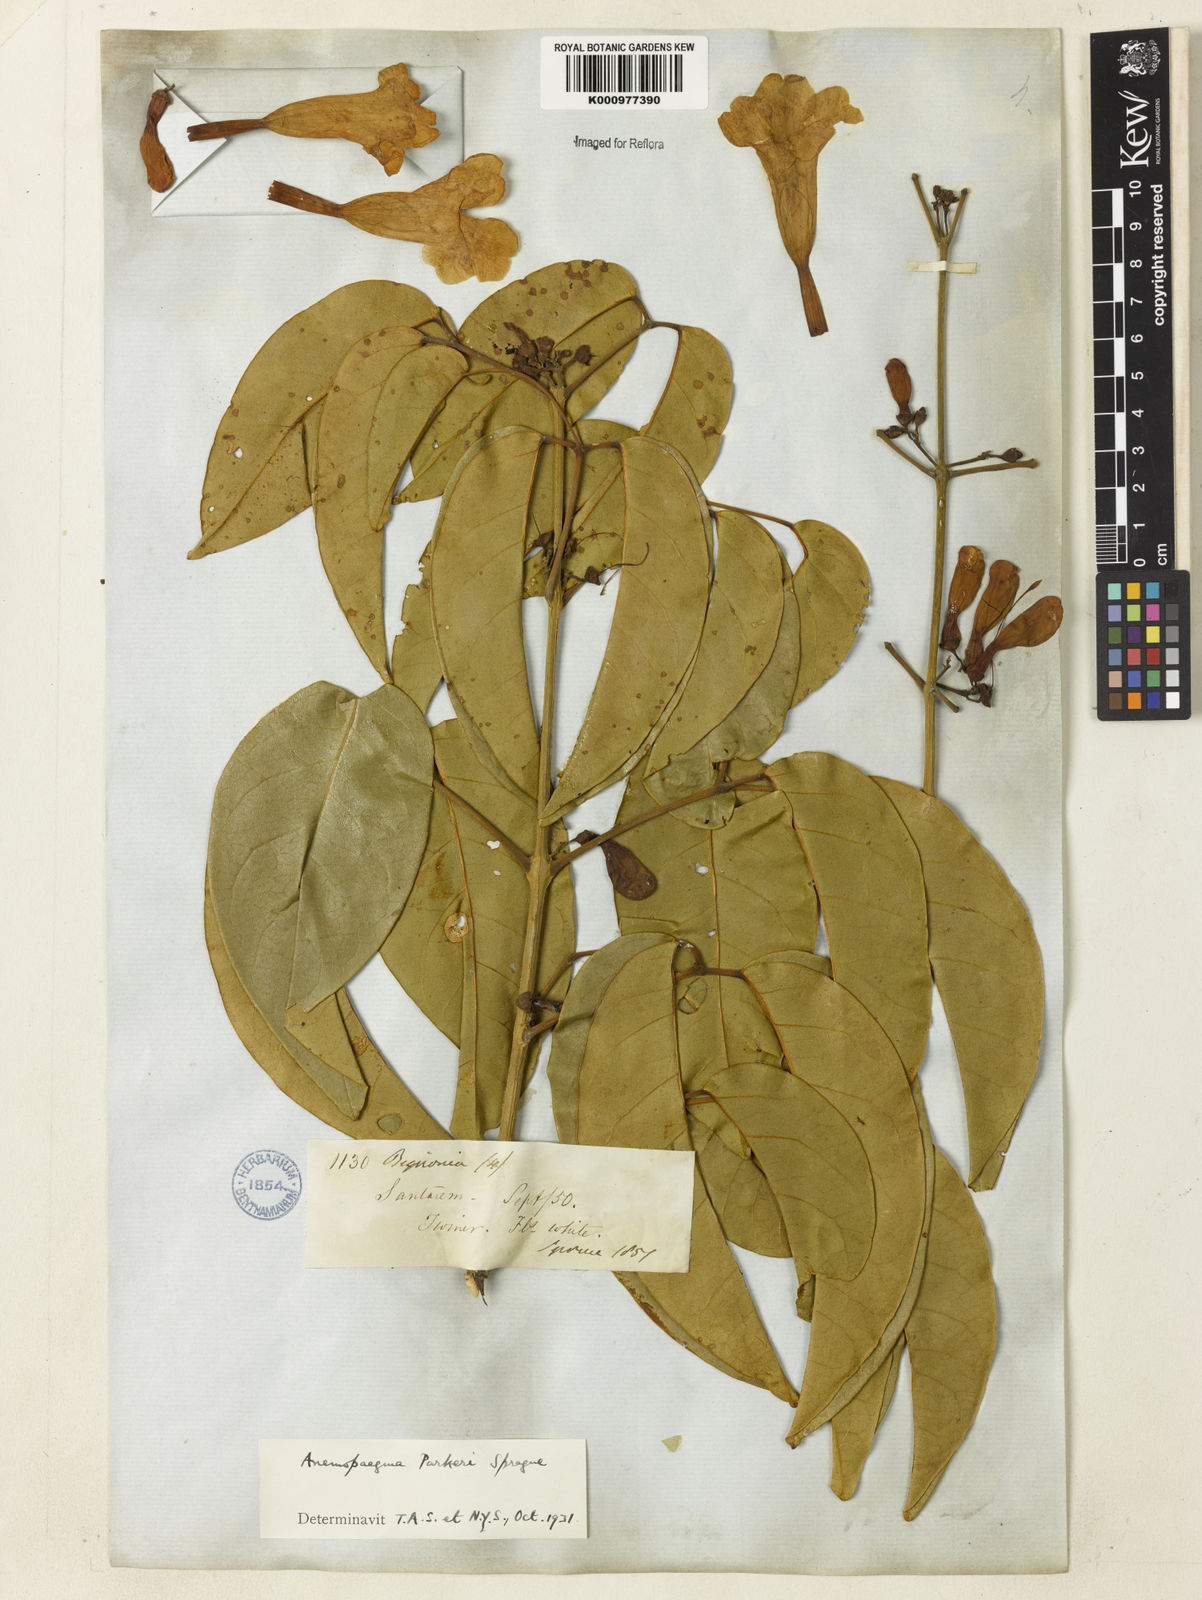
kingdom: Plantae
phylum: Tracheophyta
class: Magnoliopsida
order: Lamiales
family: Bignoniaceae
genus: Anemopaegma
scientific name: Anemopaegma parkeri
